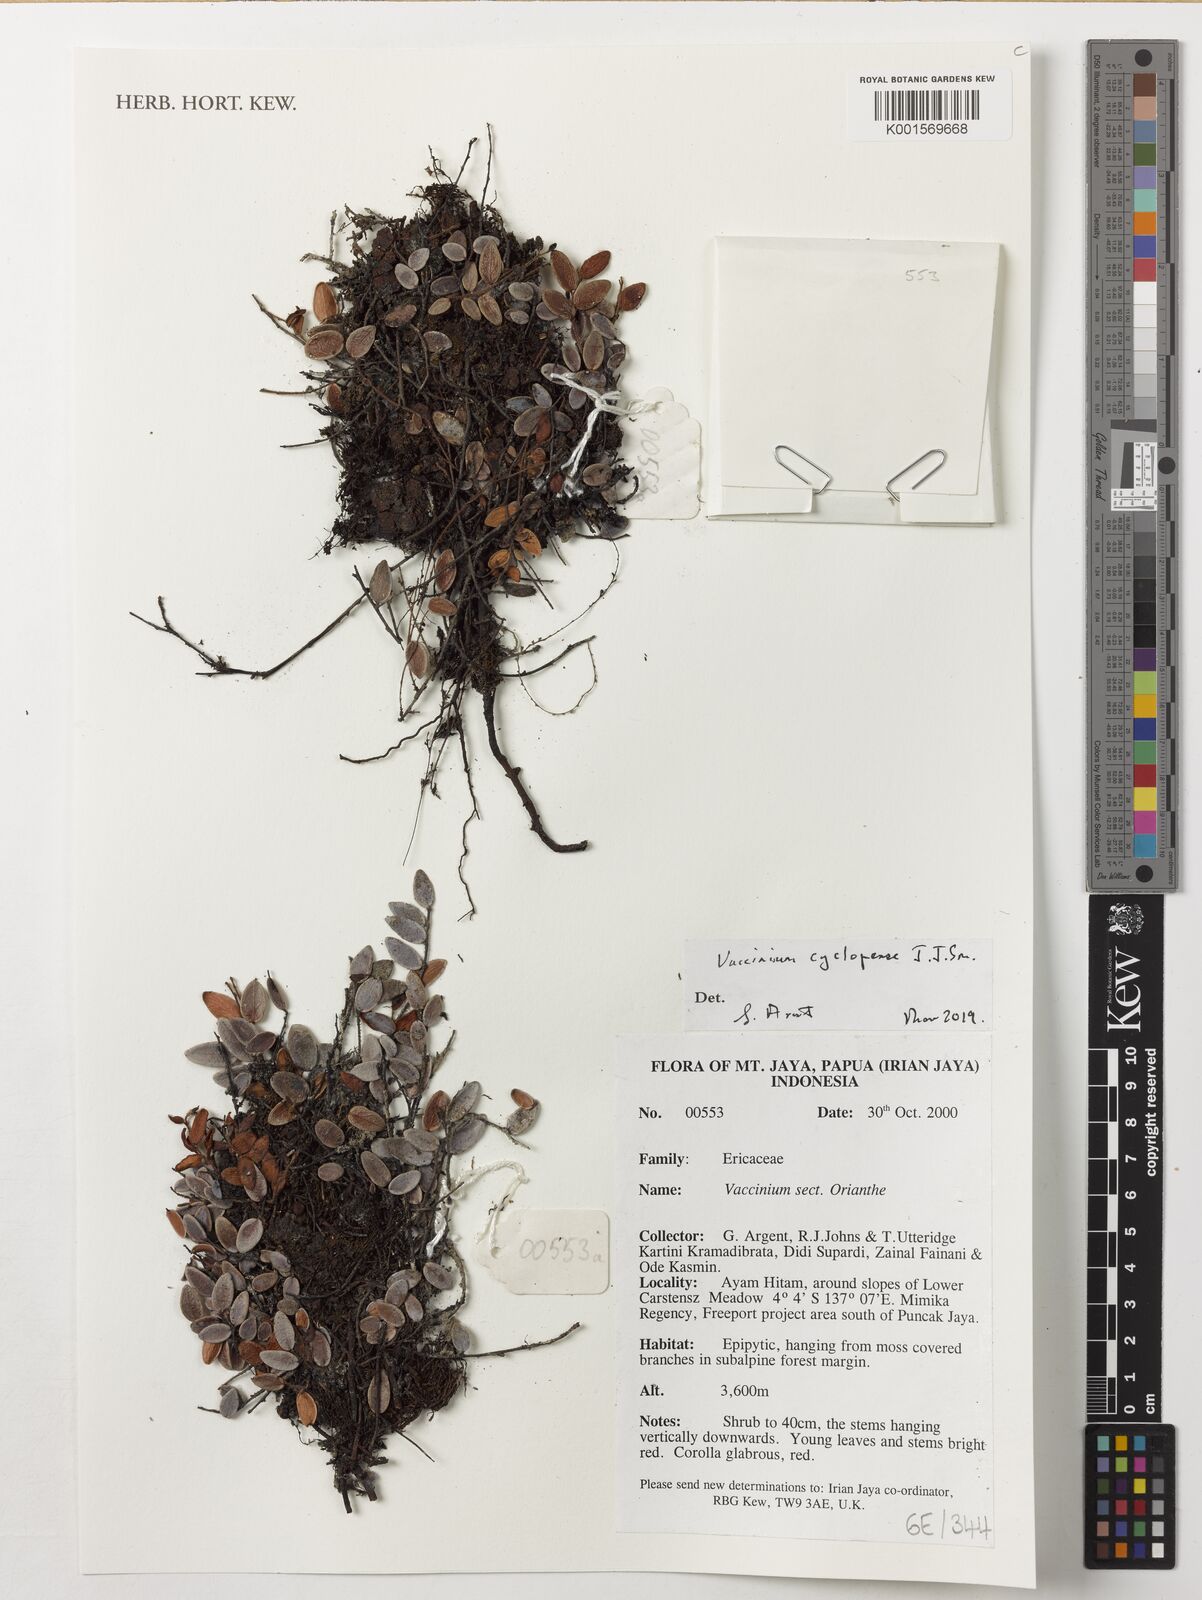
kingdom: Plantae
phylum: Tracheophyta
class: Magnoliopsida
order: Ericales
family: Ericaceae
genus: Vaccinium
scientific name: Vaccinium cyclopense
